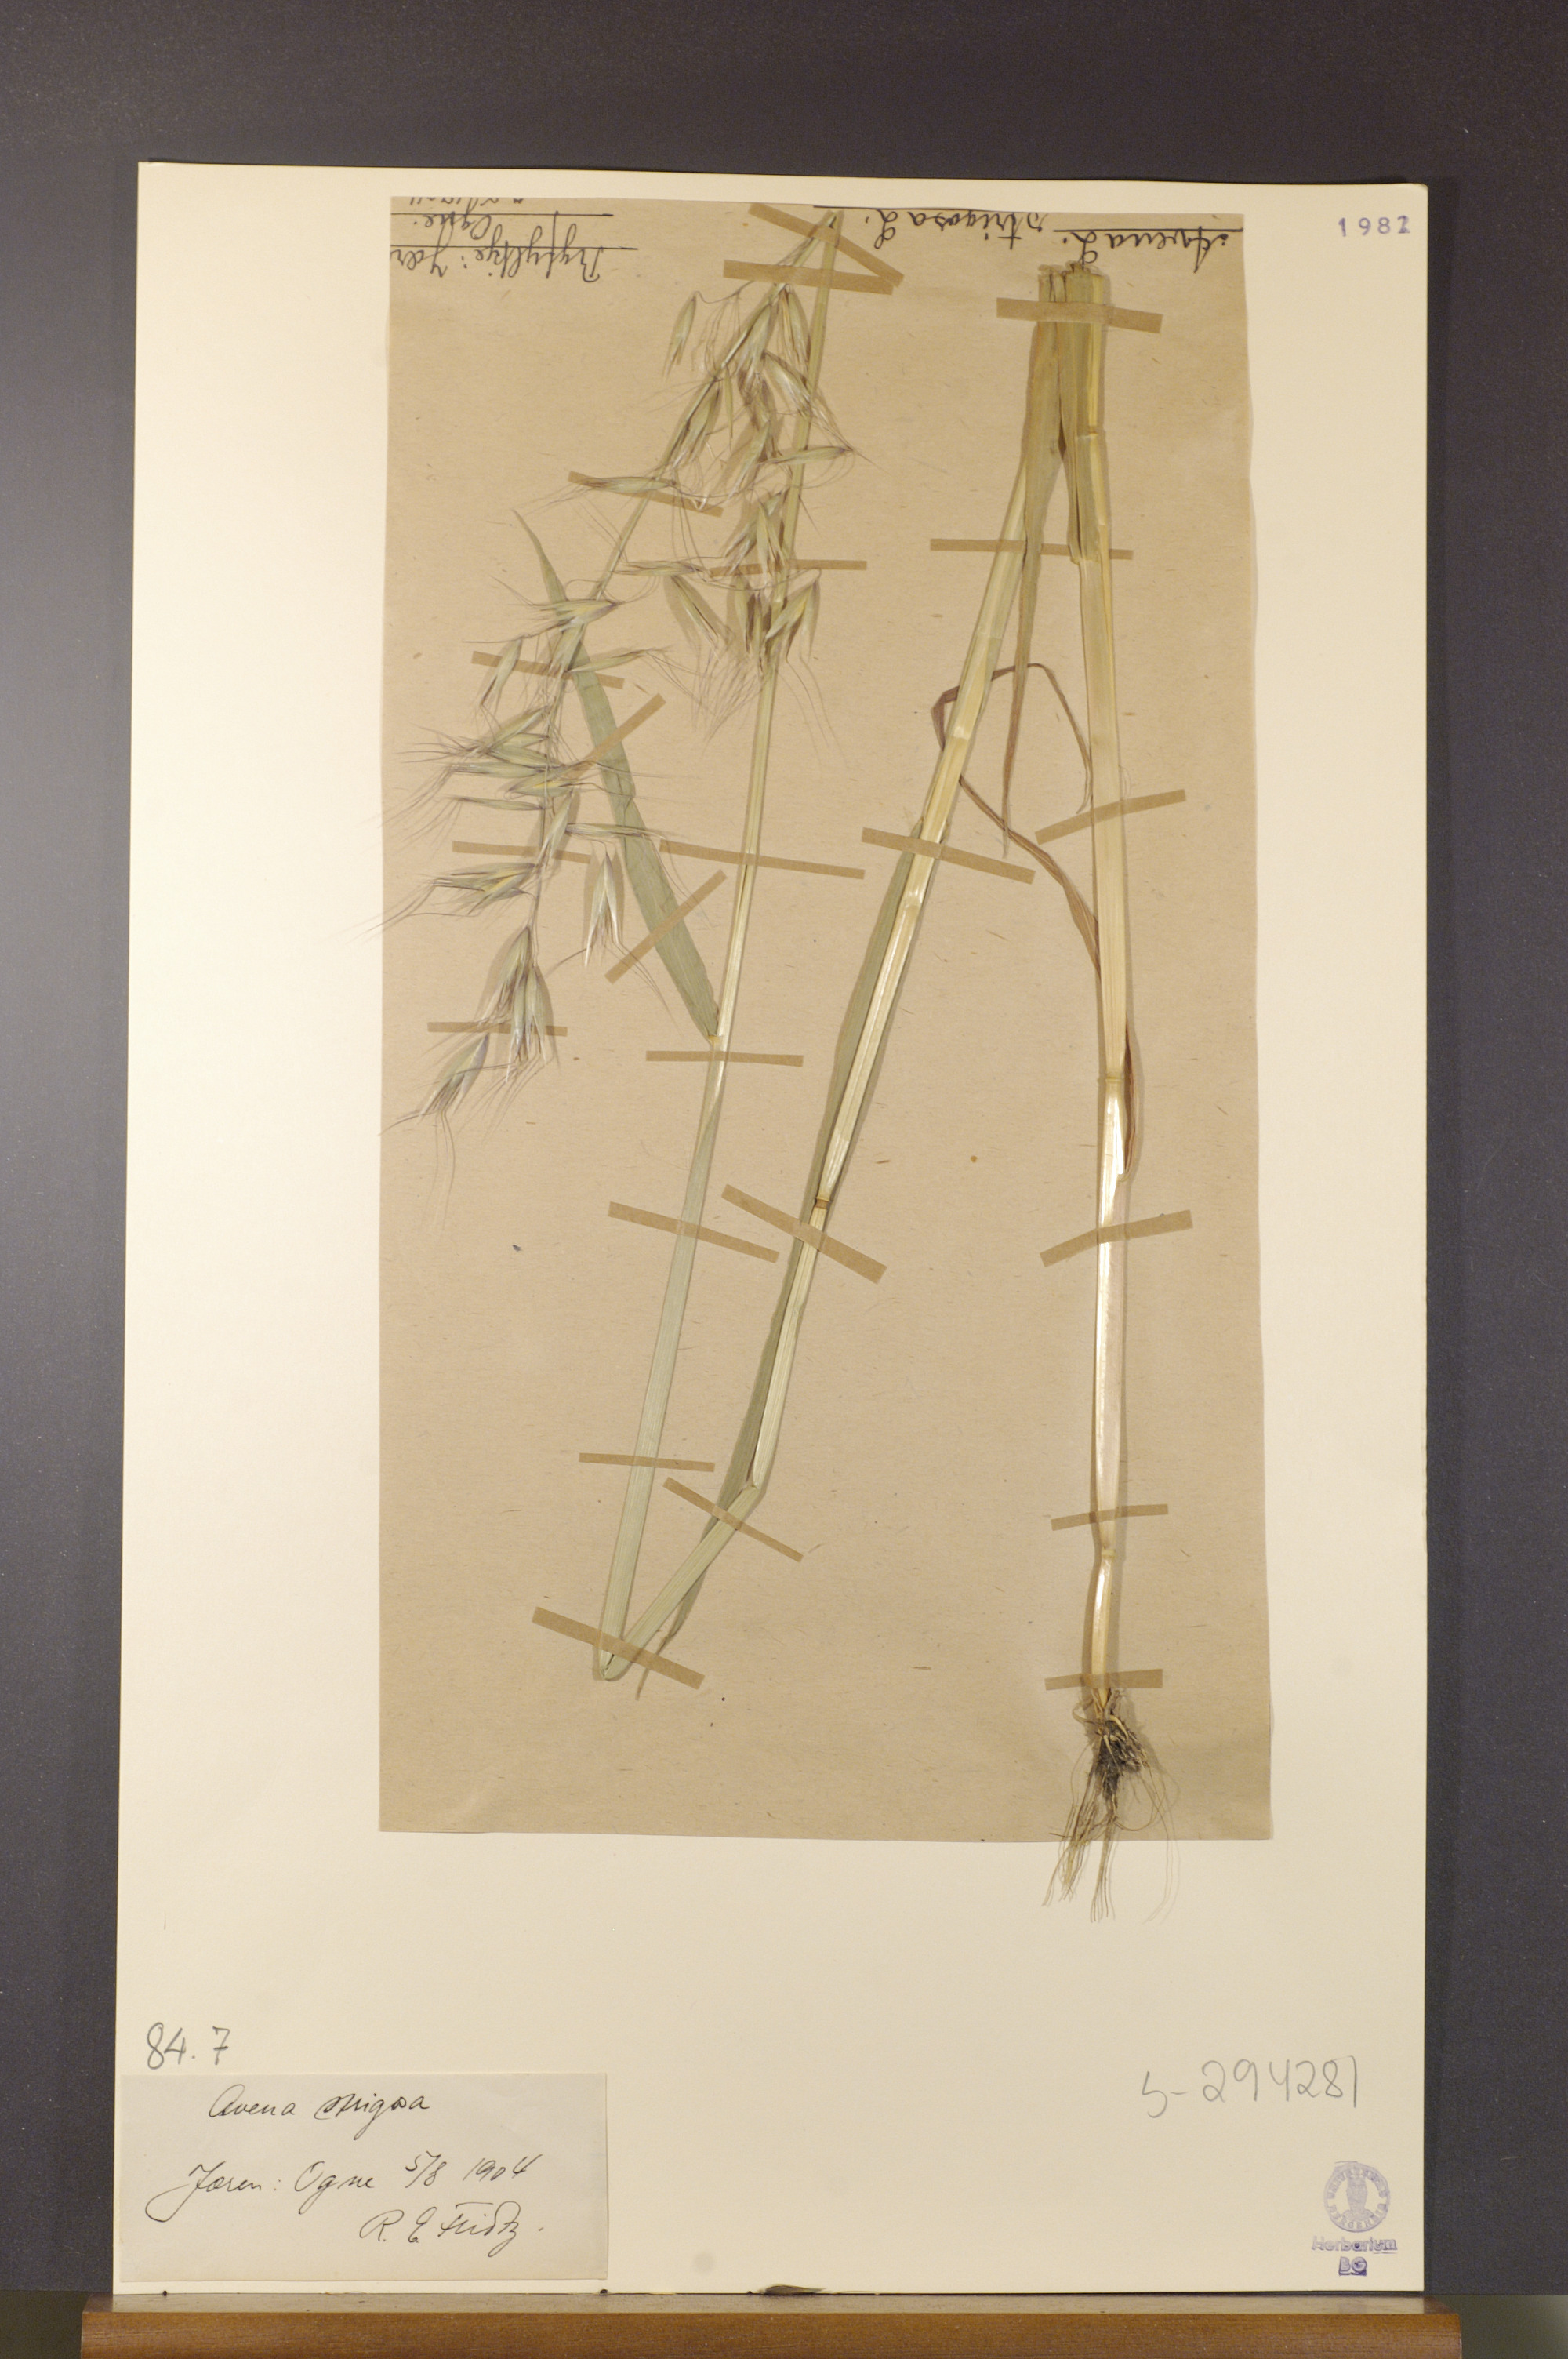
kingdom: Plantae
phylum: Tracheophyta
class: Liliopsida
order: Poales
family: Poaceae
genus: Avena
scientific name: Avena strigosa
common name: Bristle oat
